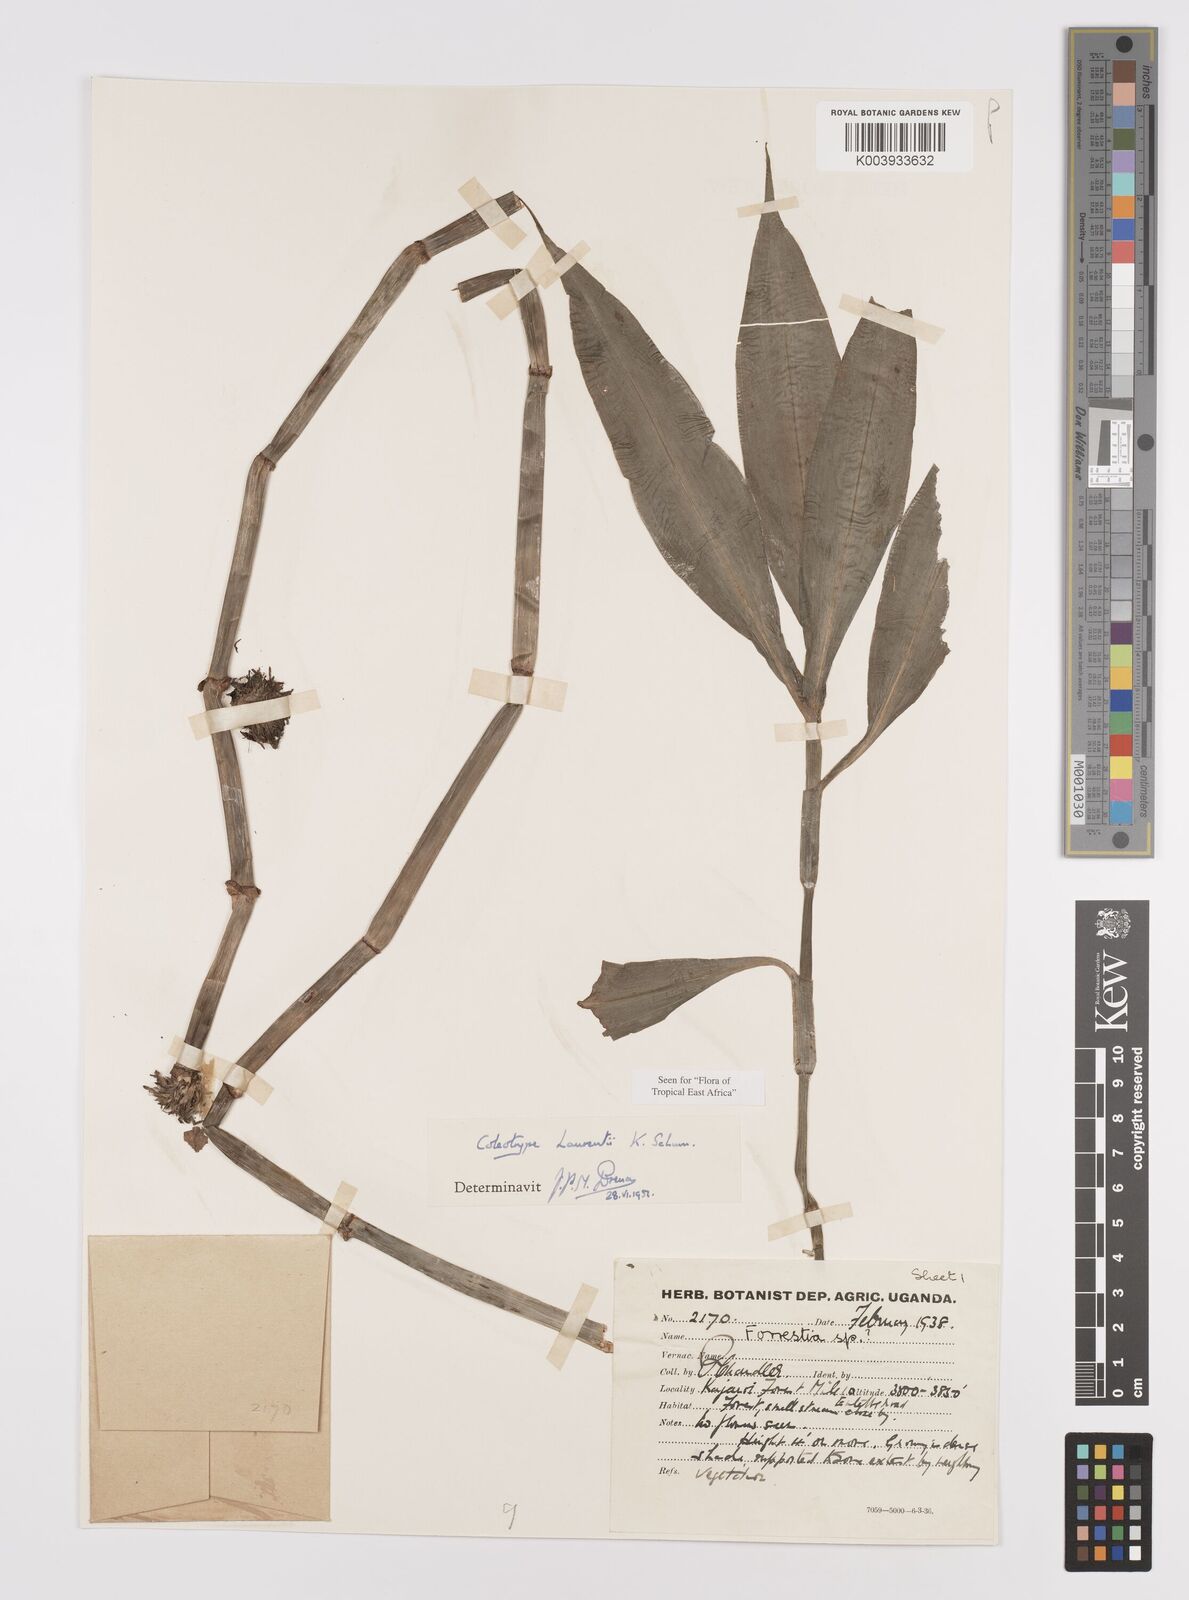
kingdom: Plantae
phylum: Tracheophyta
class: Liliopsida
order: Commelinales
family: Commelinaceae
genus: Coleotrype
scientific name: Coleotrype laurentii
